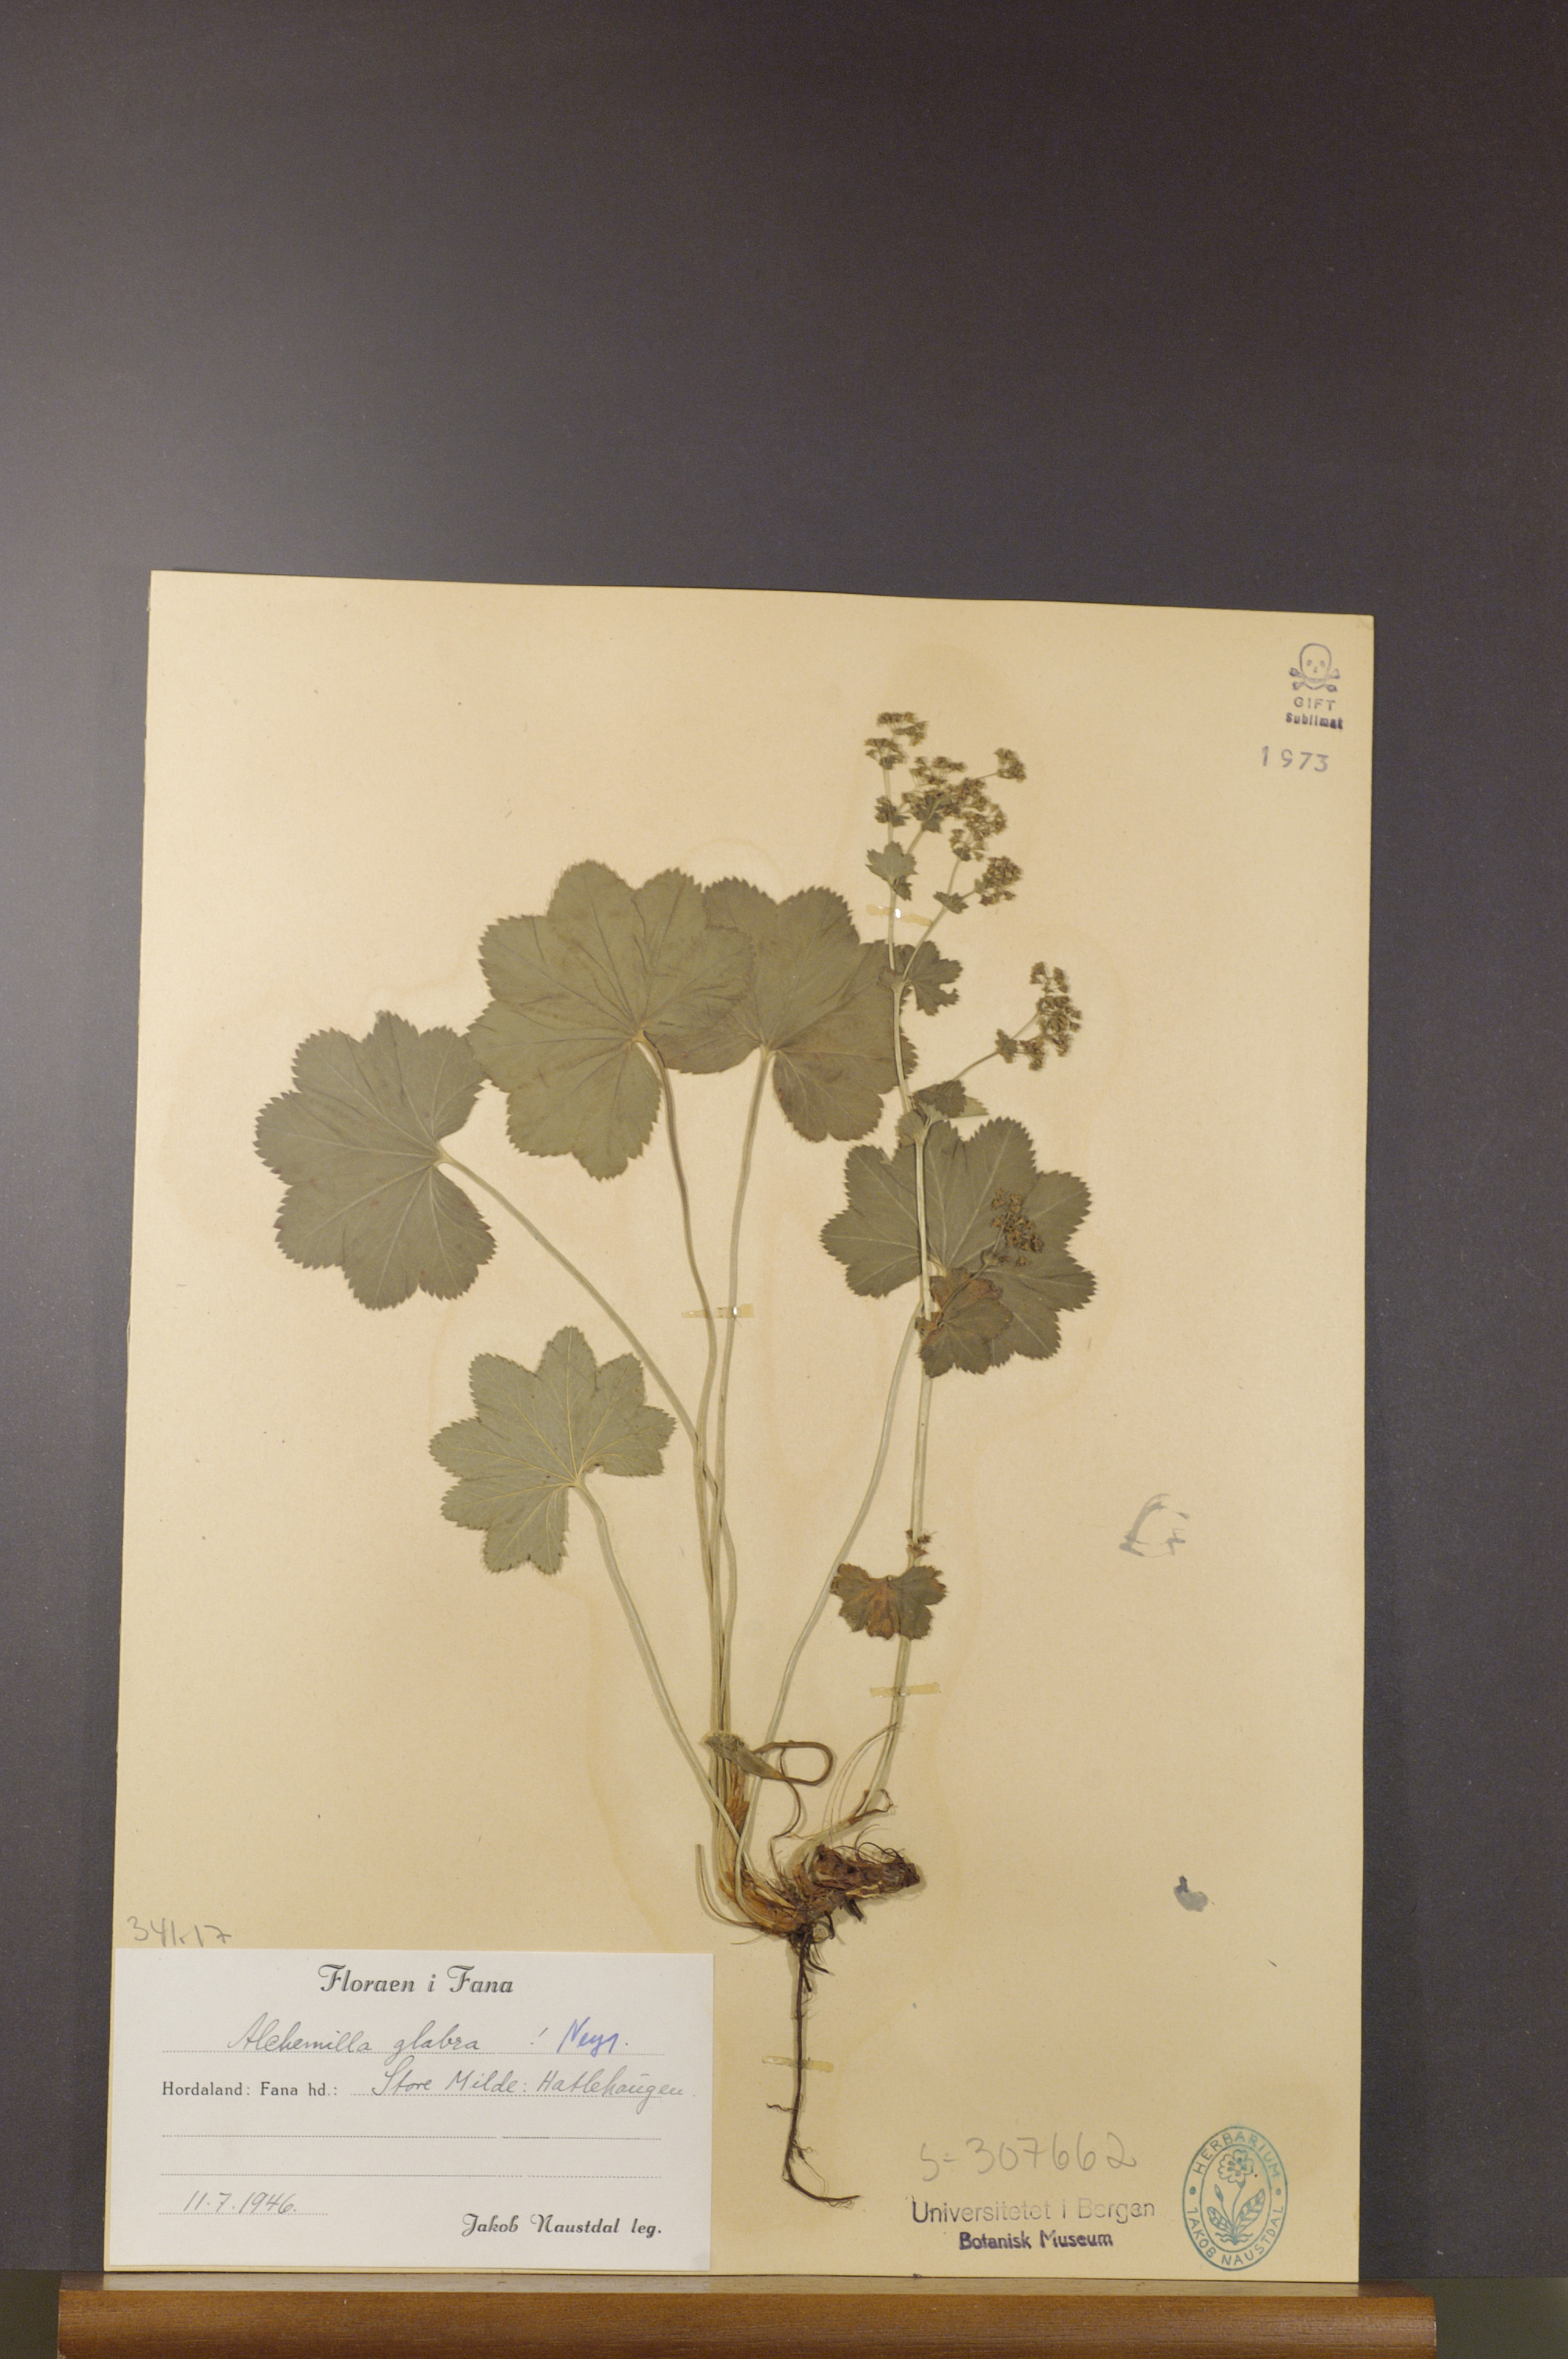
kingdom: Plantae
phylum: Tracheophyta
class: Magnoliopsida
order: Rosales
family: Rosaceae
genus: Alchemilla
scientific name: Alchemilla glabra
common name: Smooth lady's-mantle
